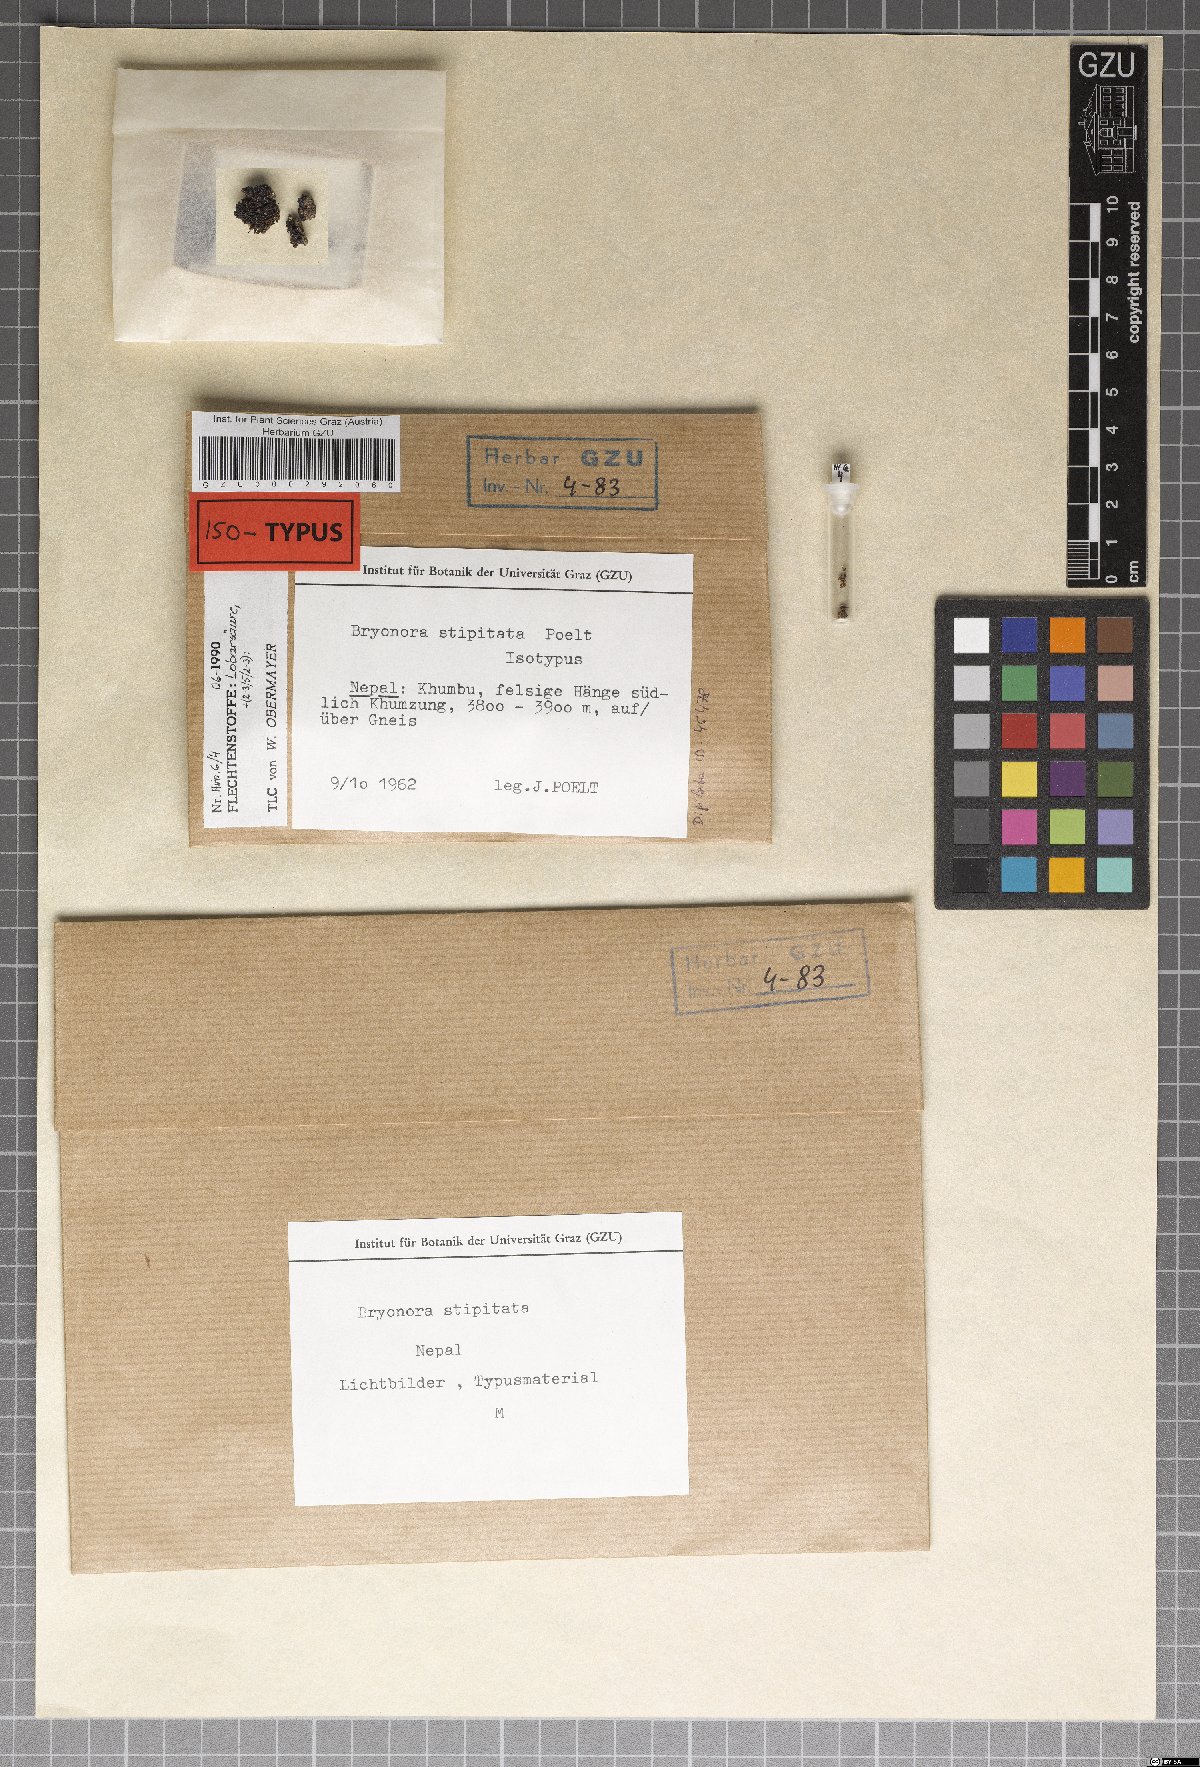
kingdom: Fungi
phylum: Ascomycota
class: Lecanoromycetes
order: Lecanorales
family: Lecanoraceae
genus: Bryonora
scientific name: Bryonora stipitata
